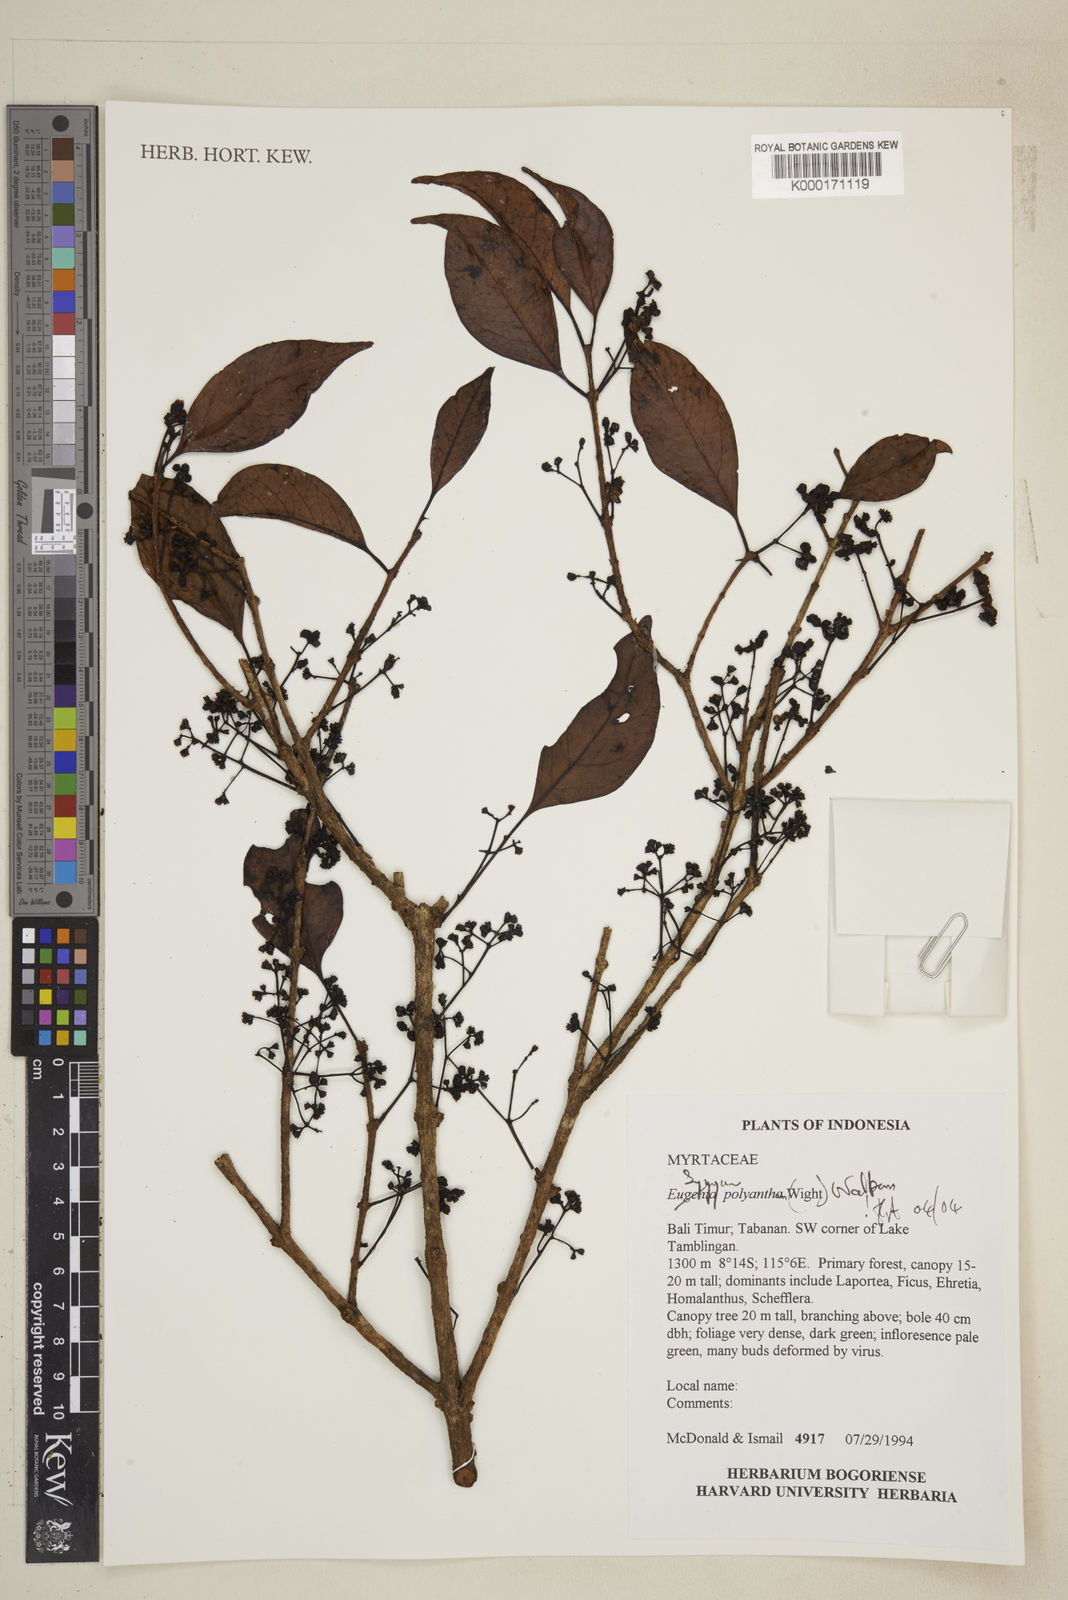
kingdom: Plantae
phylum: Tracheophyta
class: Magnoliopsida
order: Myrtales
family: Myrtaceae
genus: Syzygium
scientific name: Syzygium polyanthum
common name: Indonesian bayleaf
